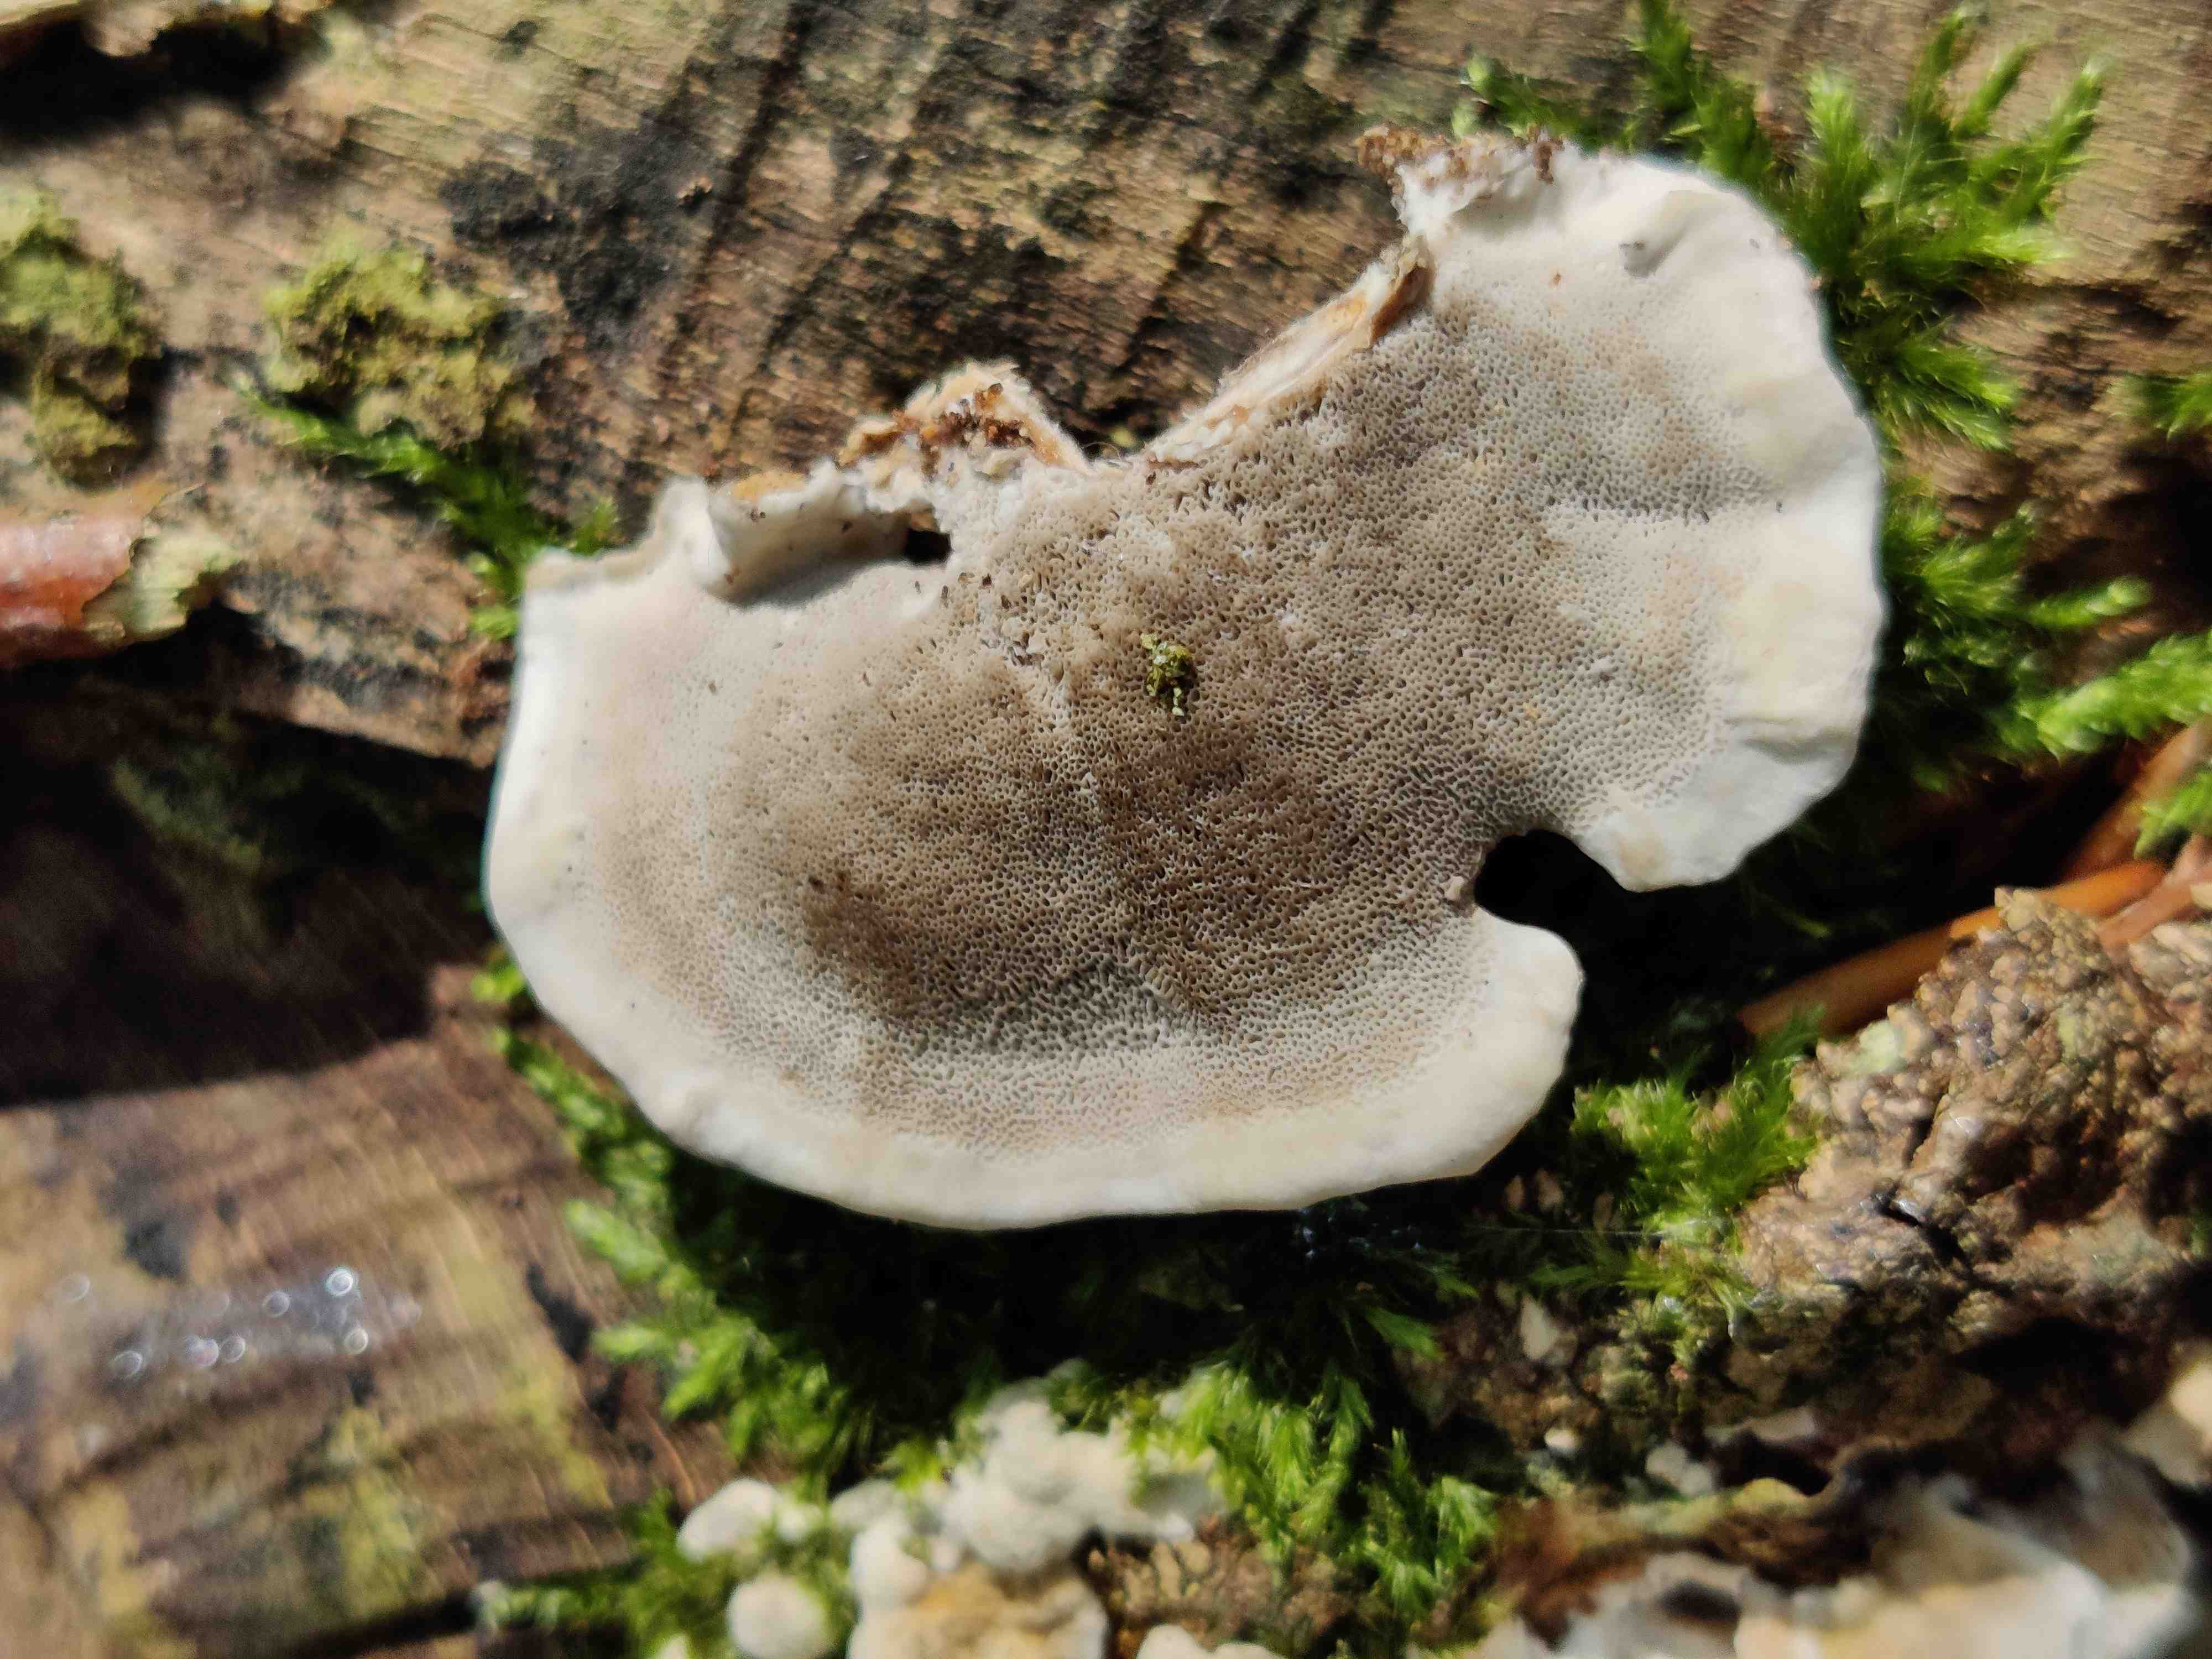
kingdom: Fungi
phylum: Basidiomycota
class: Agaricomycetes
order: Polyporales
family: Phanerochaetaceae
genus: Bjerkandera
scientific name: Bjerkandera adusta
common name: sveden sodporesvamp
